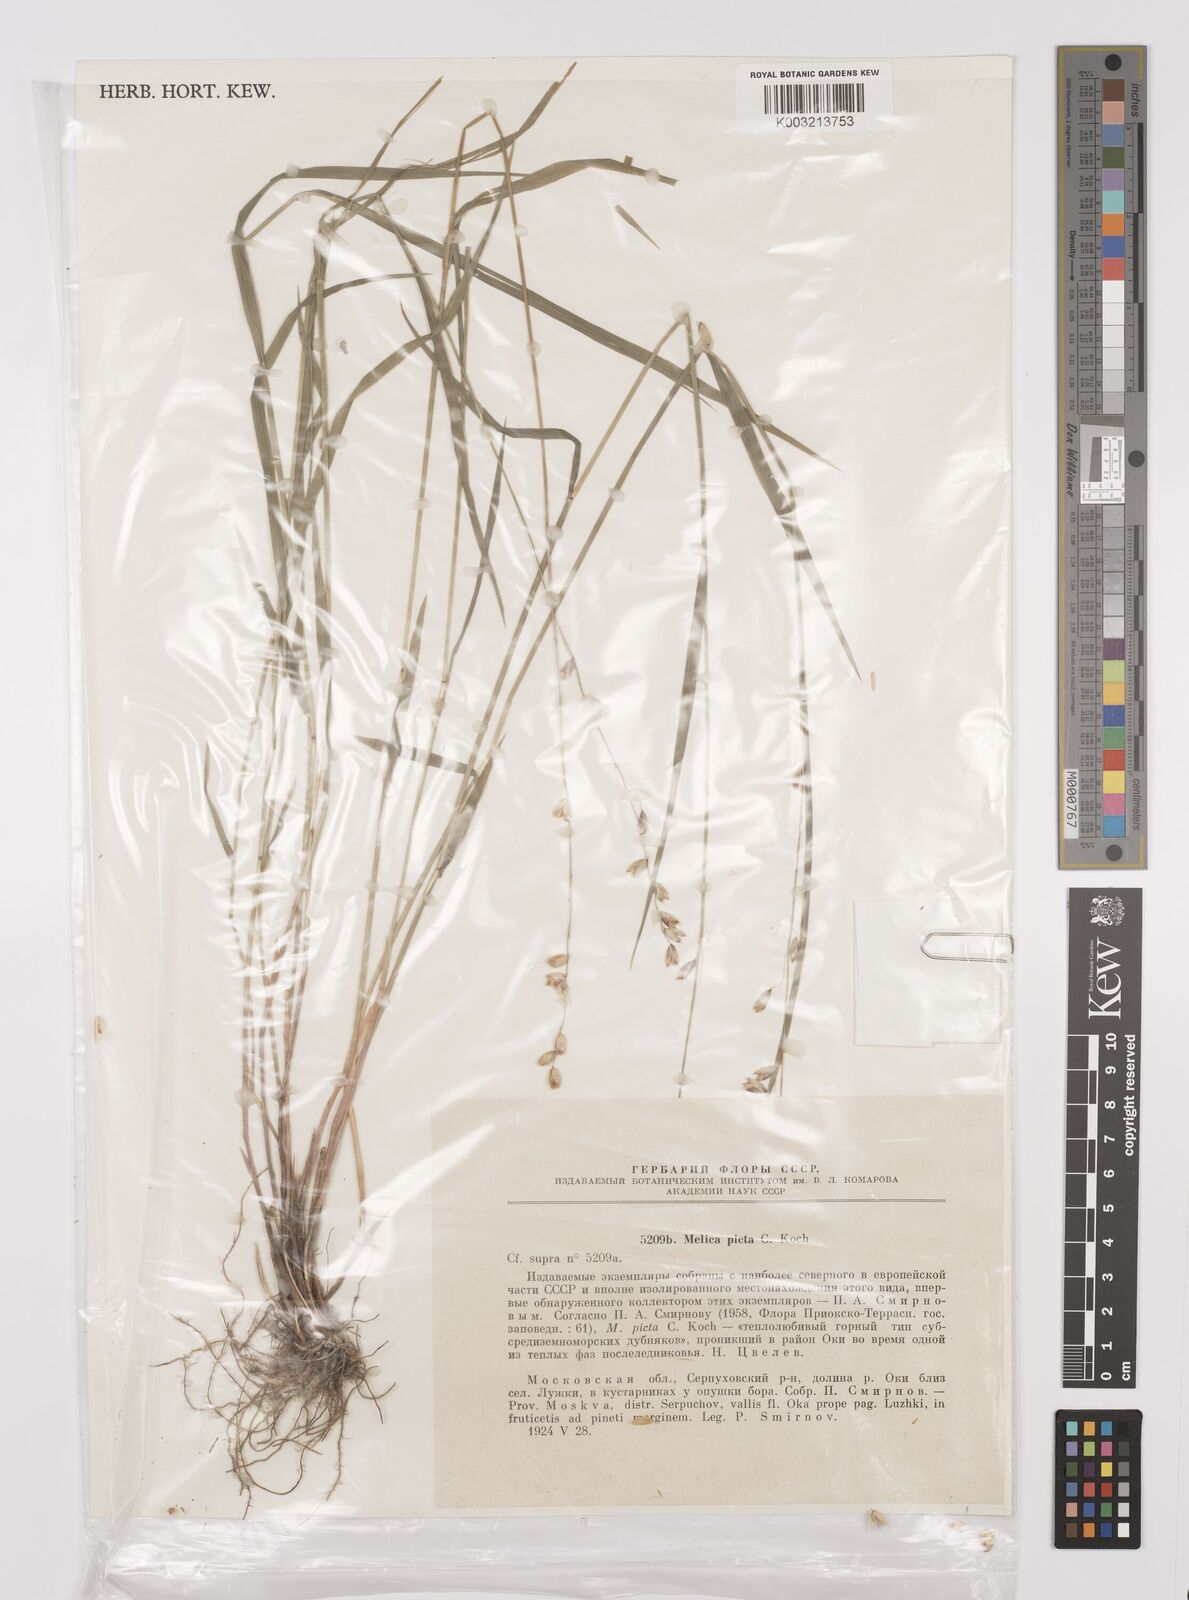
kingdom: Plantae
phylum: Tracheophyta
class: Liliopsida
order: Poales
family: Poaceae
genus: Melica
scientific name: Melica picta
